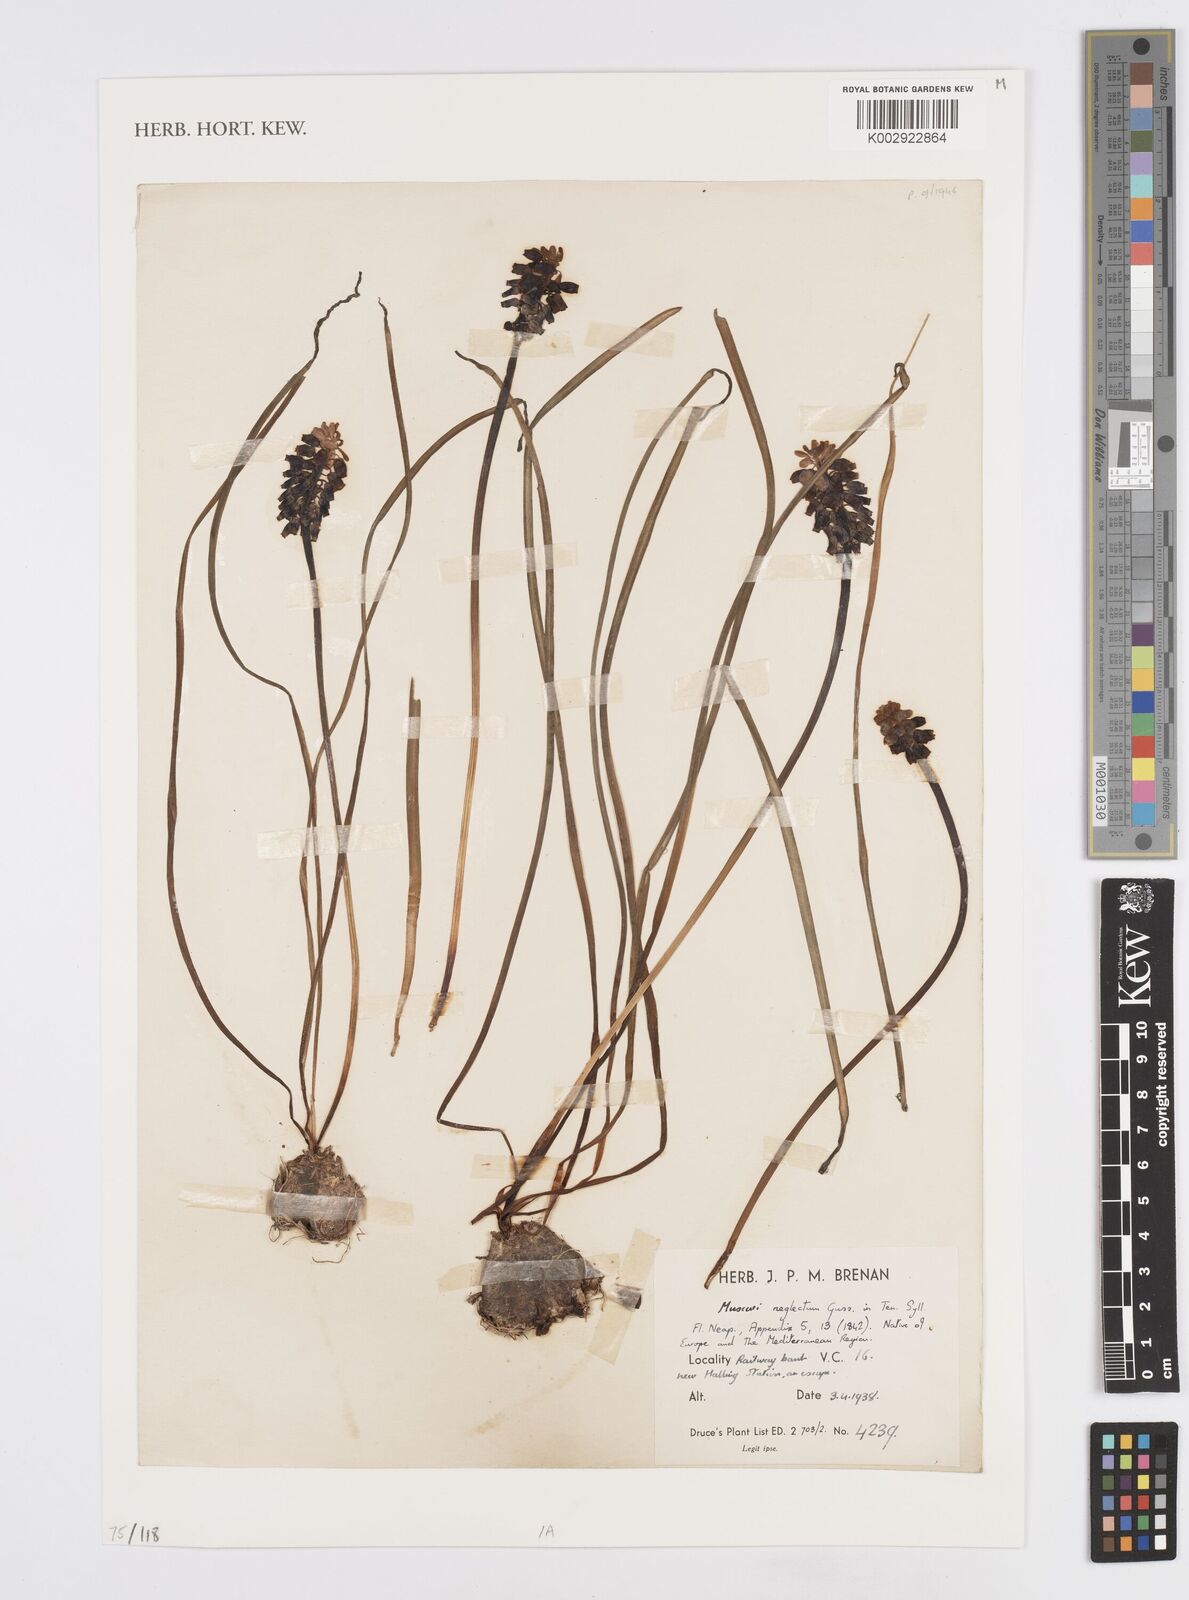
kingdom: Plantae
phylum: Tracheophyta
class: Liliopsida
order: Asparagales
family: Asparagaceae
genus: Muscari
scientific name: Muscari neglectum
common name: Grape-hyacinth
